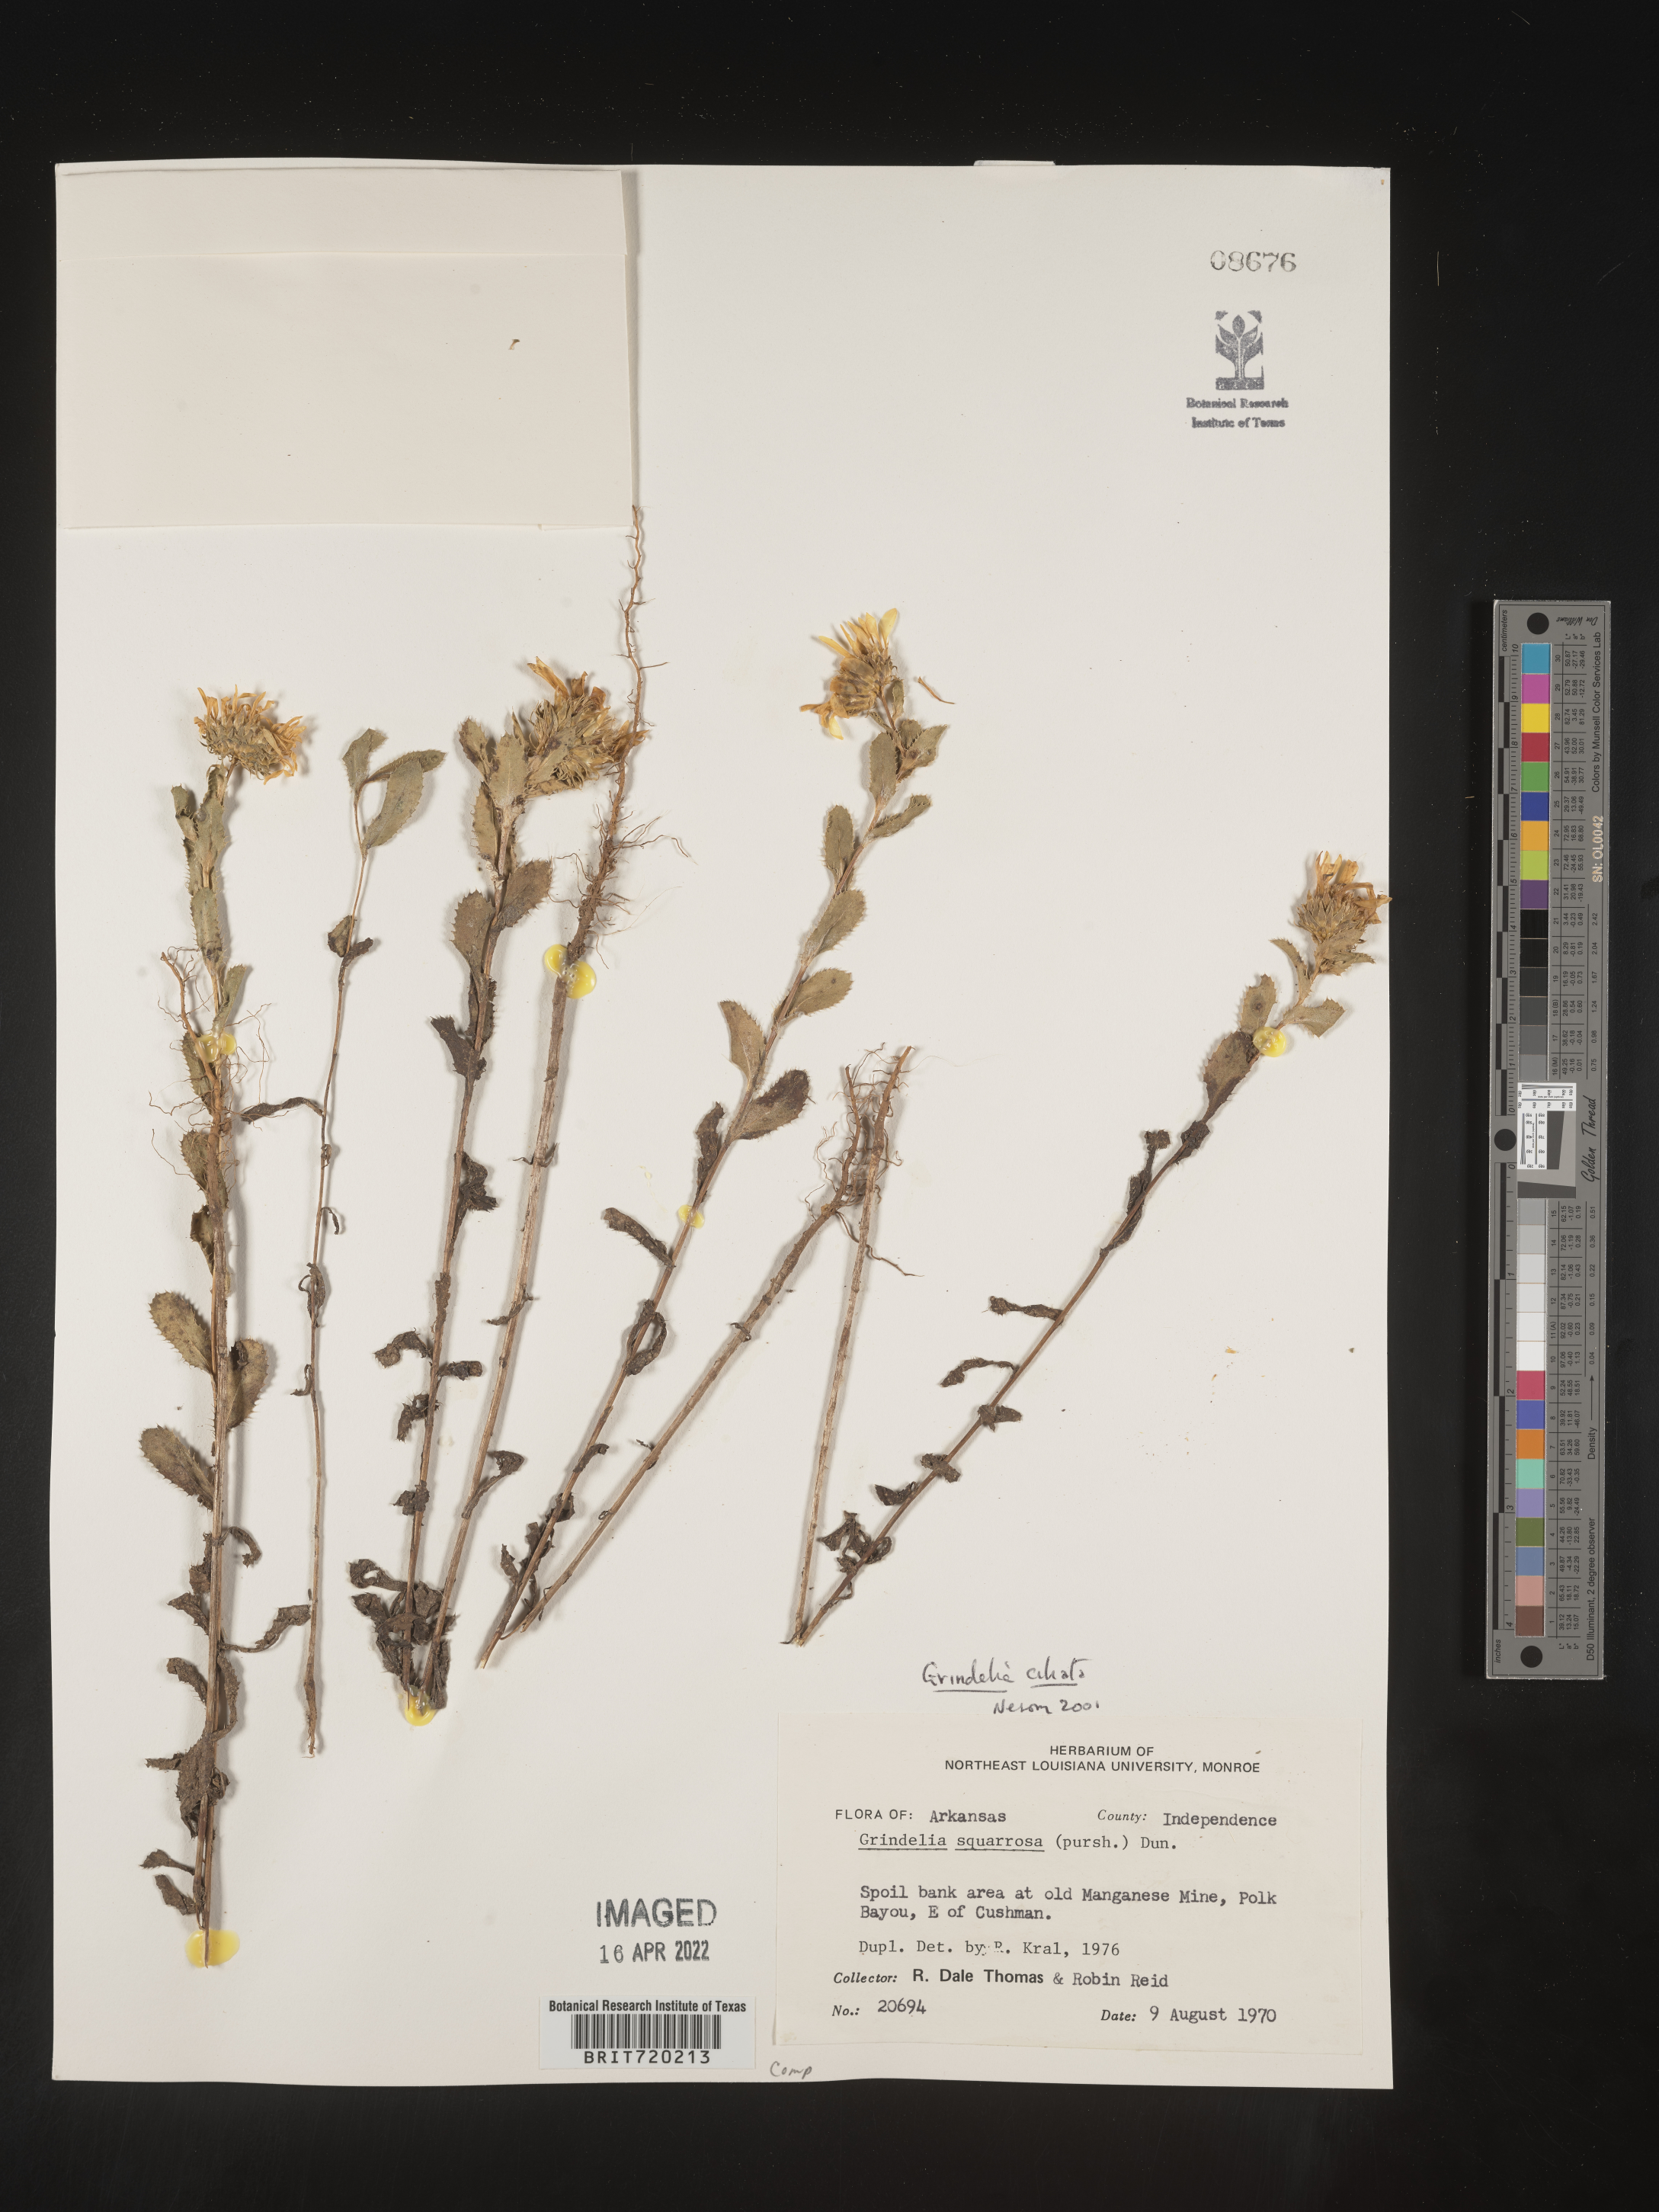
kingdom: Plantae
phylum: Tracheophyta
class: Magnoliopsida
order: Asterales
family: Asteraceae
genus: Grindelia
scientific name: Grindelia ciliata
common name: Goldenweed
